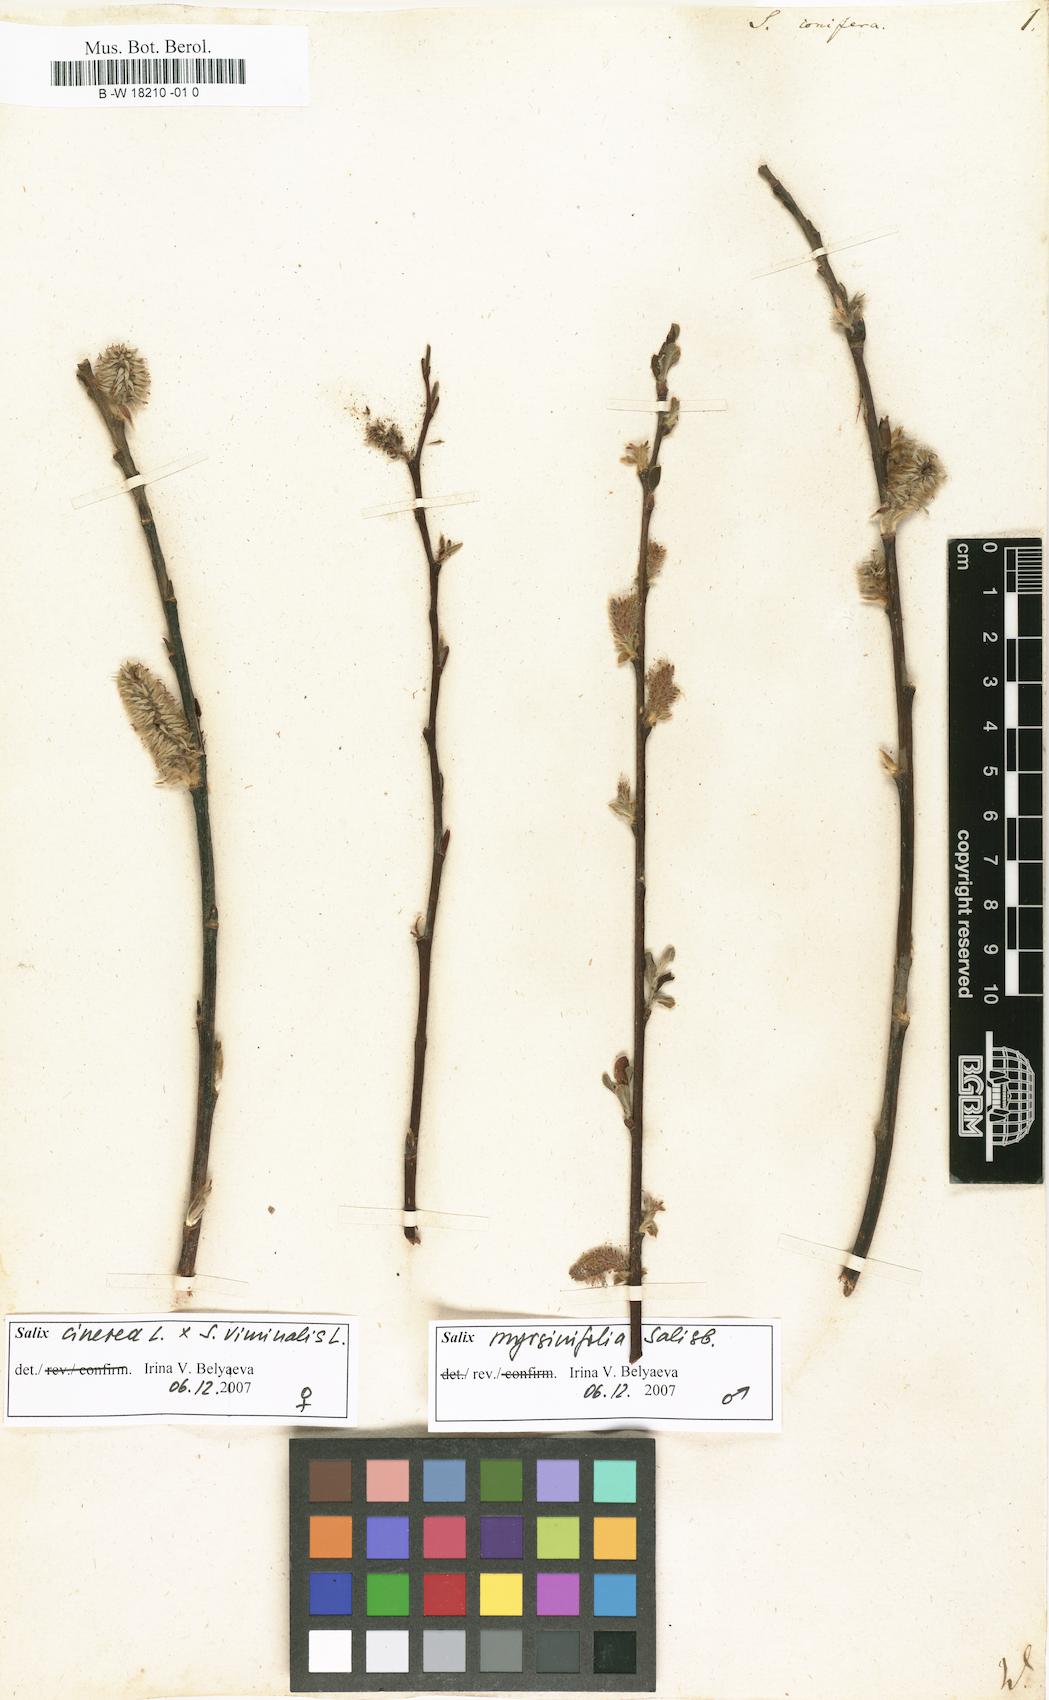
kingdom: Plantae
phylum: Tracheophyta
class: Magnoliopsida
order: Malpighiales
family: Salicaceae
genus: Salix
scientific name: Salix conifera
